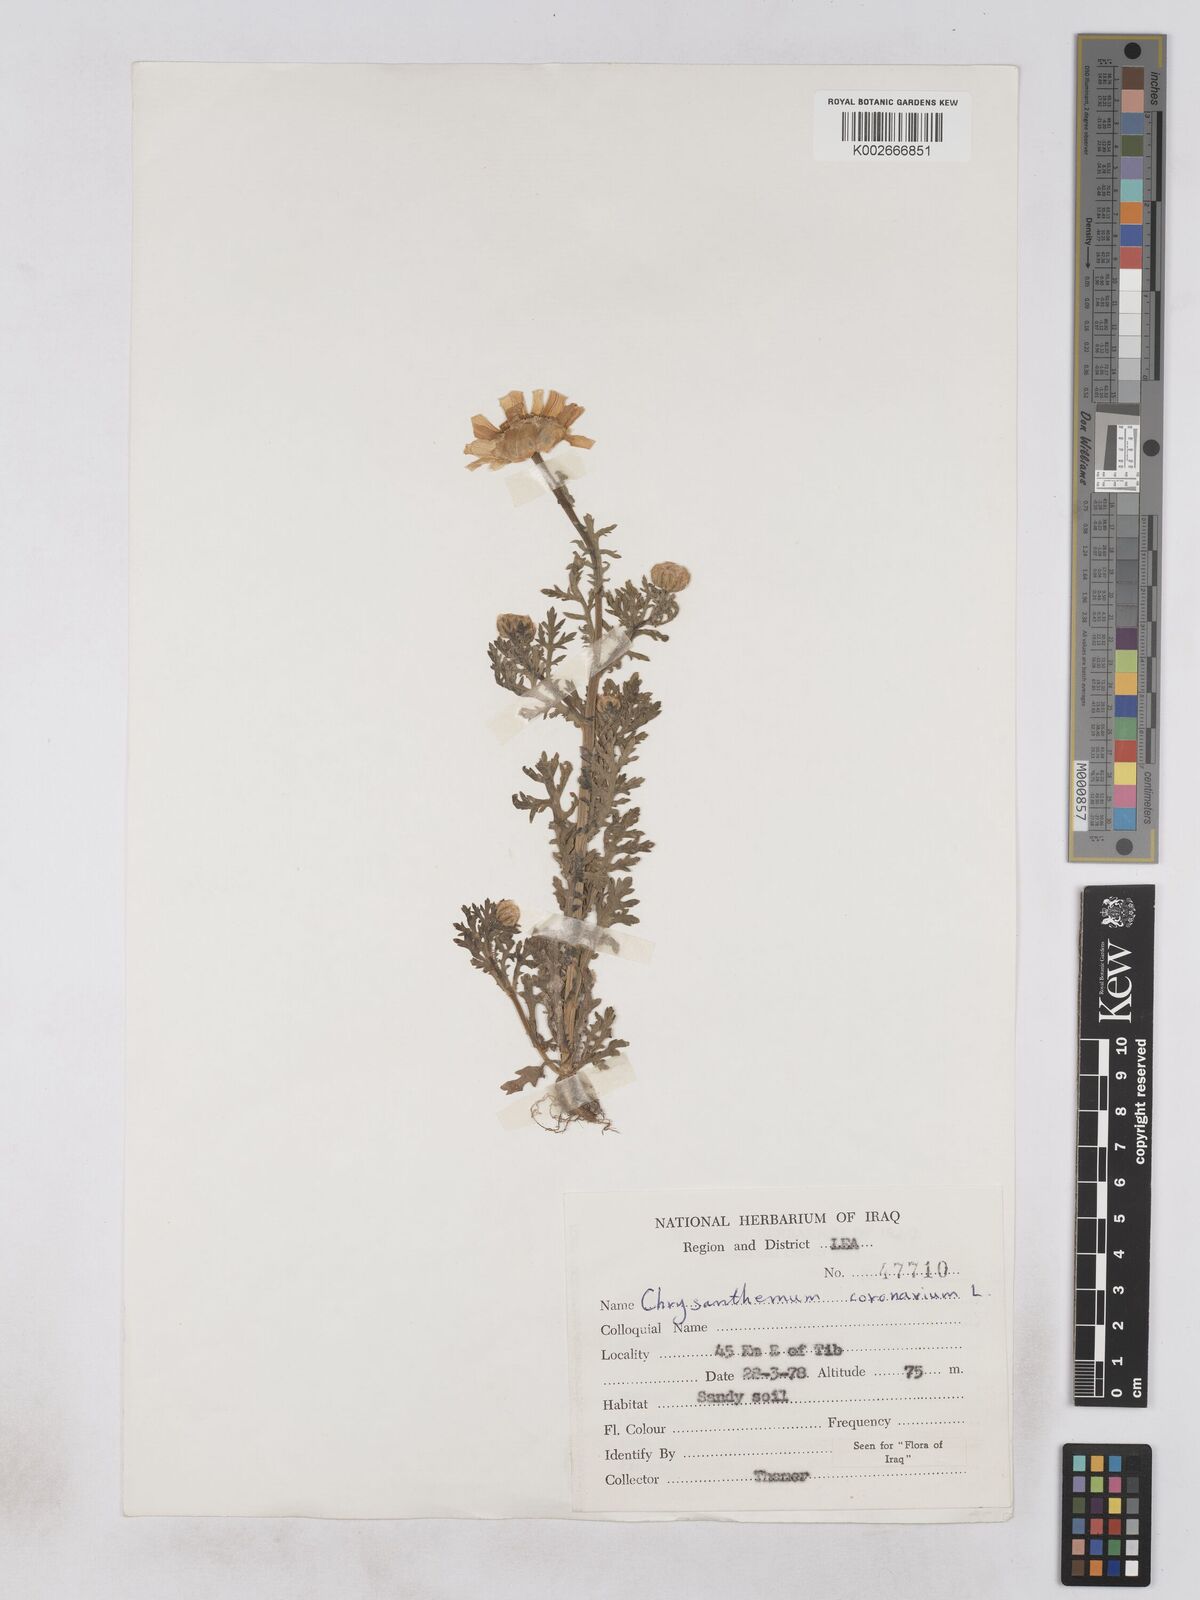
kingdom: Plantae
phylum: Tracheophyta
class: Magnoliopsida
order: Asterales
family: Asteraceae
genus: Glebionis
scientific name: Glebionis coronaria
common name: Crowndaisy
